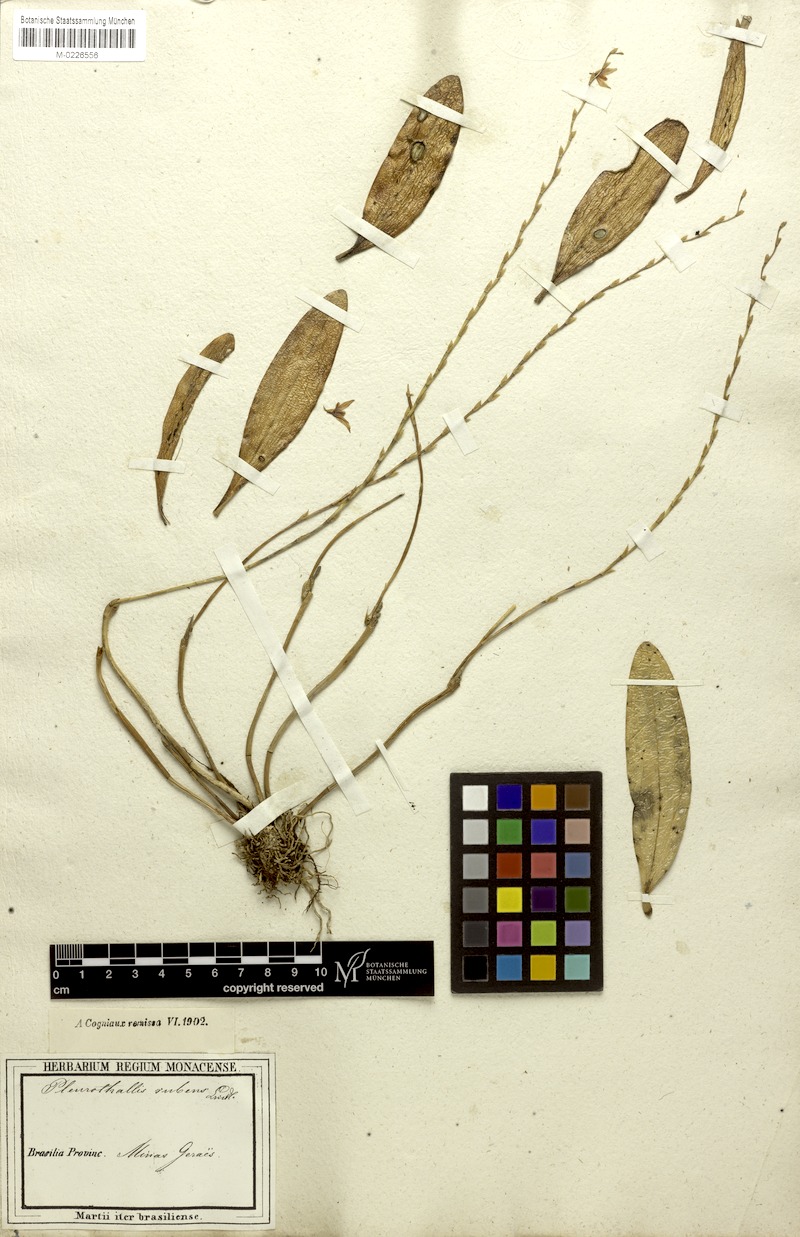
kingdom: Plantae
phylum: Tracheophyta
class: Liliopsida
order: Asparagales
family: Orchidaceae
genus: Stelis
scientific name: Stelis montserratii
